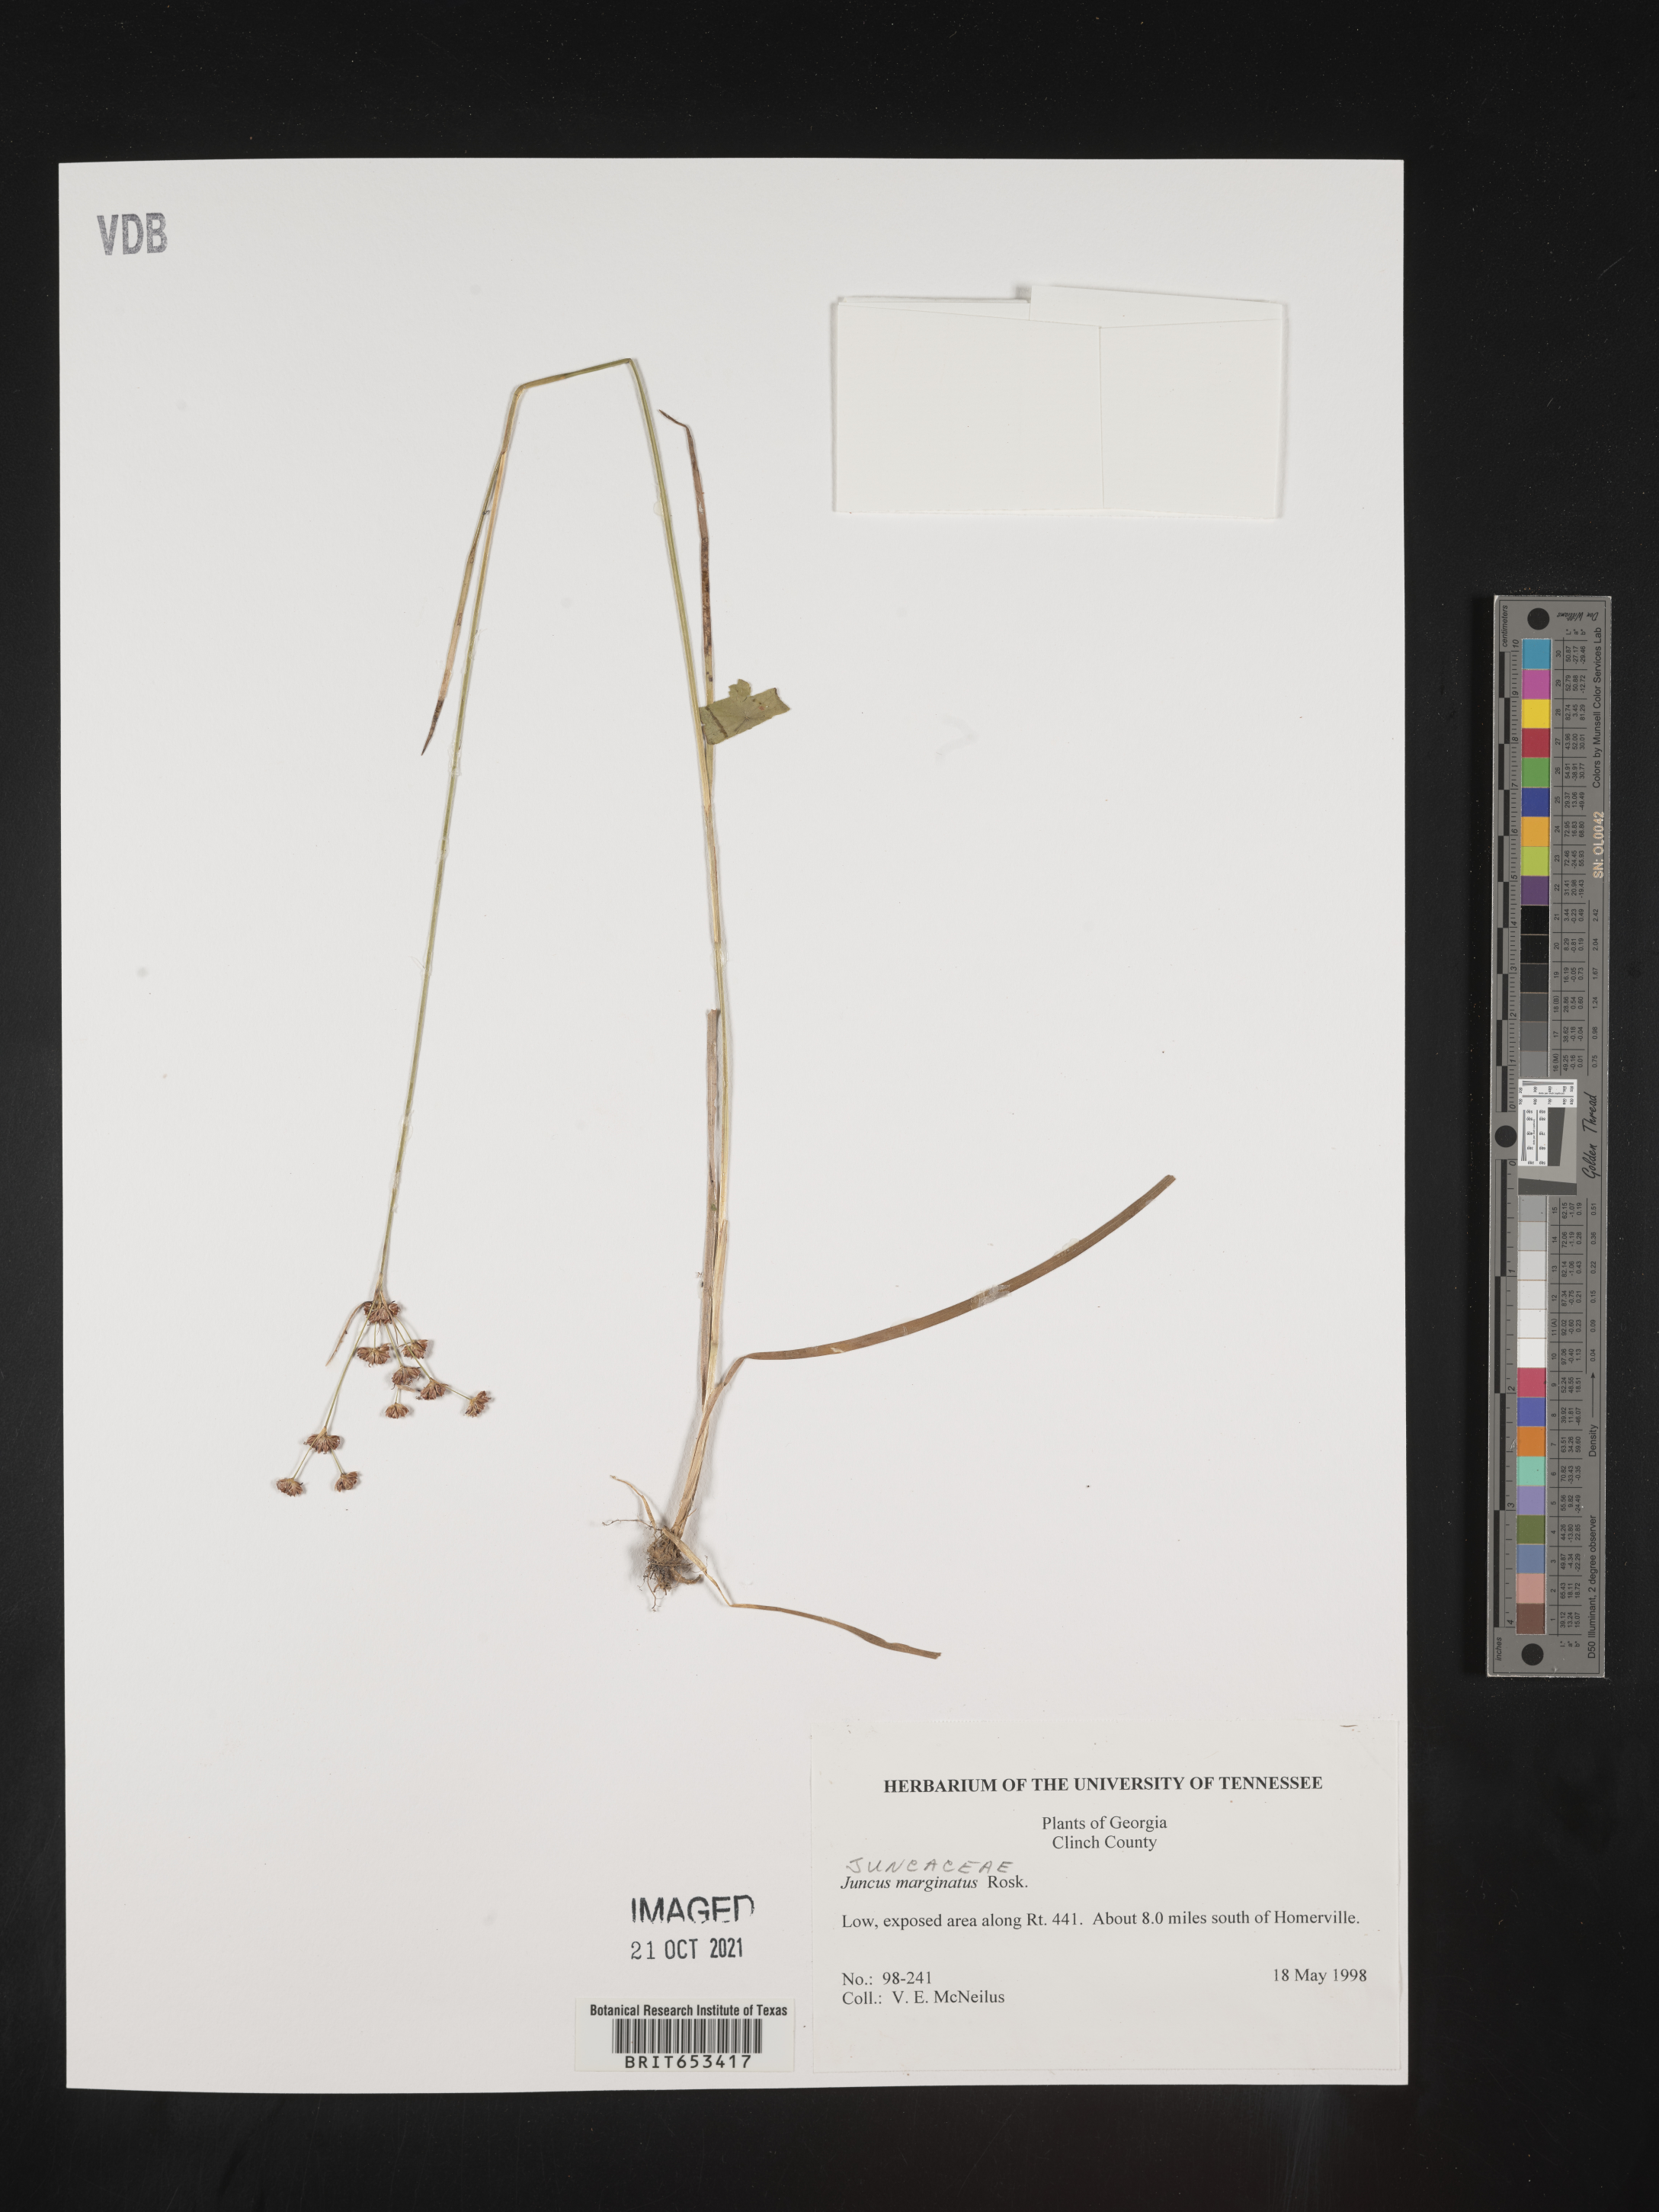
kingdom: Plantae
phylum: Tracheophyta
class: Liliopsida
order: Poales
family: Juncaceae
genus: Juncus
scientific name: Juncus marginatus
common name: Grass-leaf rush
